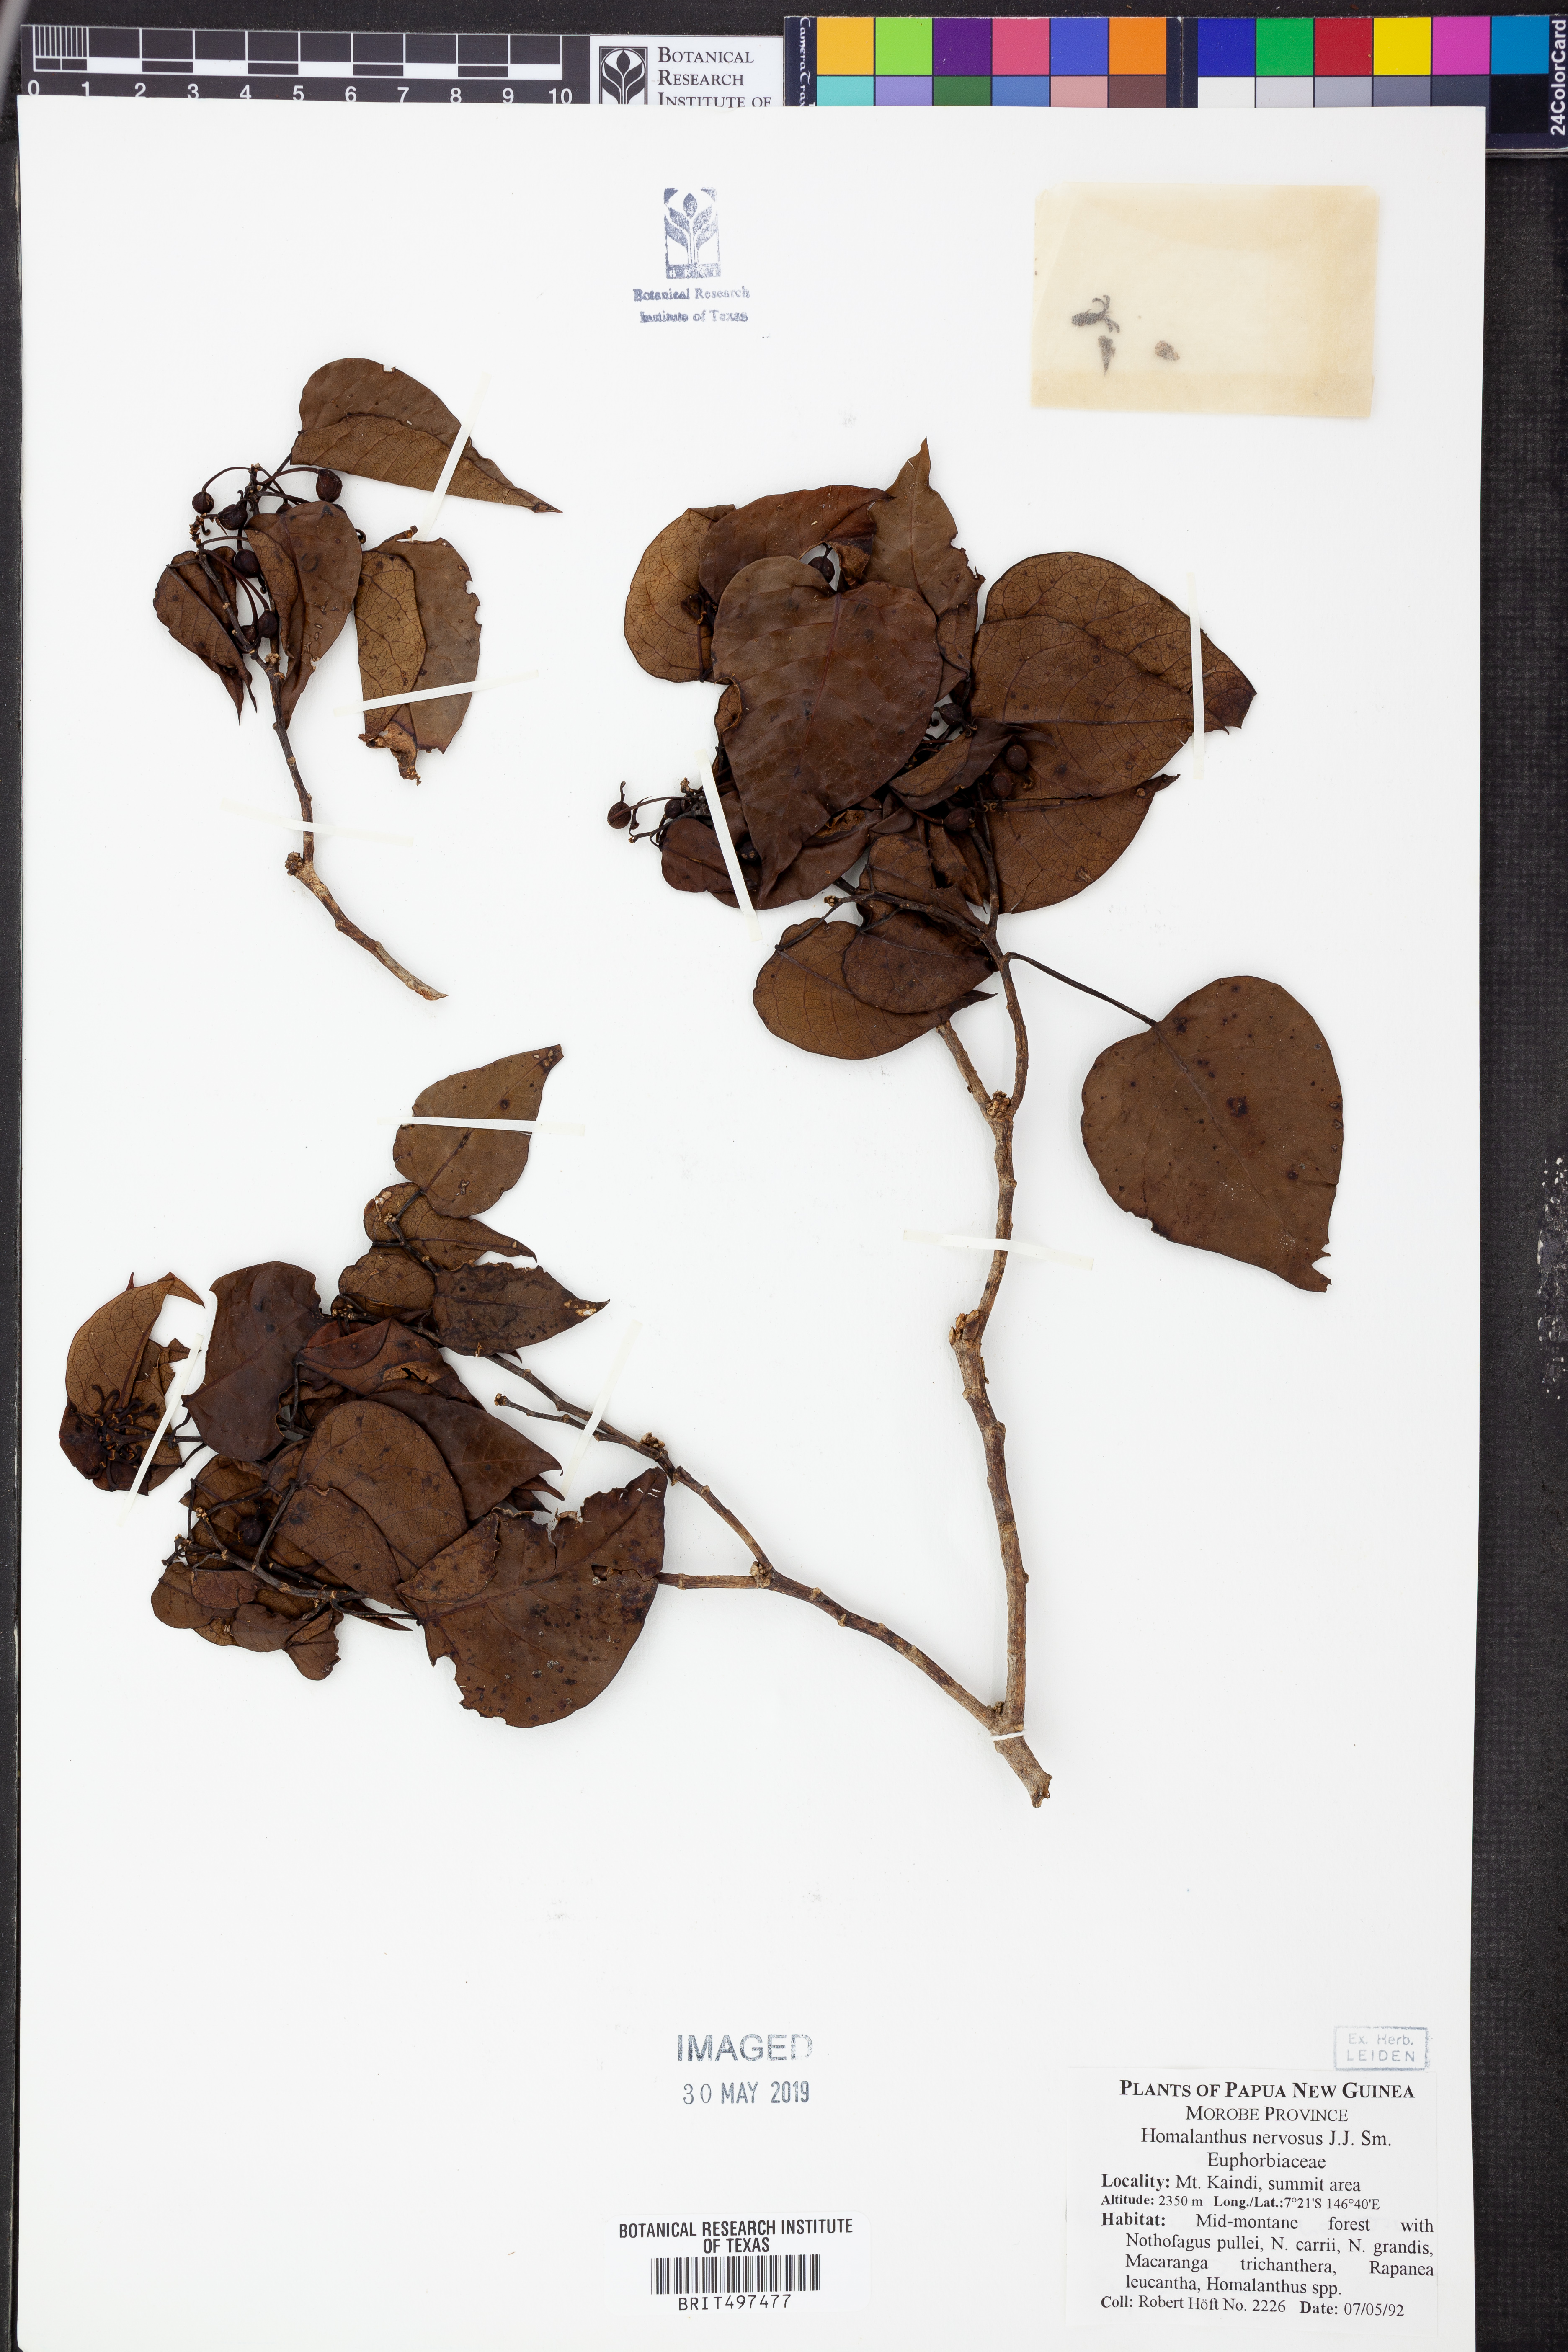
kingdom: Plantae
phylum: Tracheophyta
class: Magnoliopsida
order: Malpighiales
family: Euphorbiaceae
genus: Homalanthus
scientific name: Homalanthus nervosus
